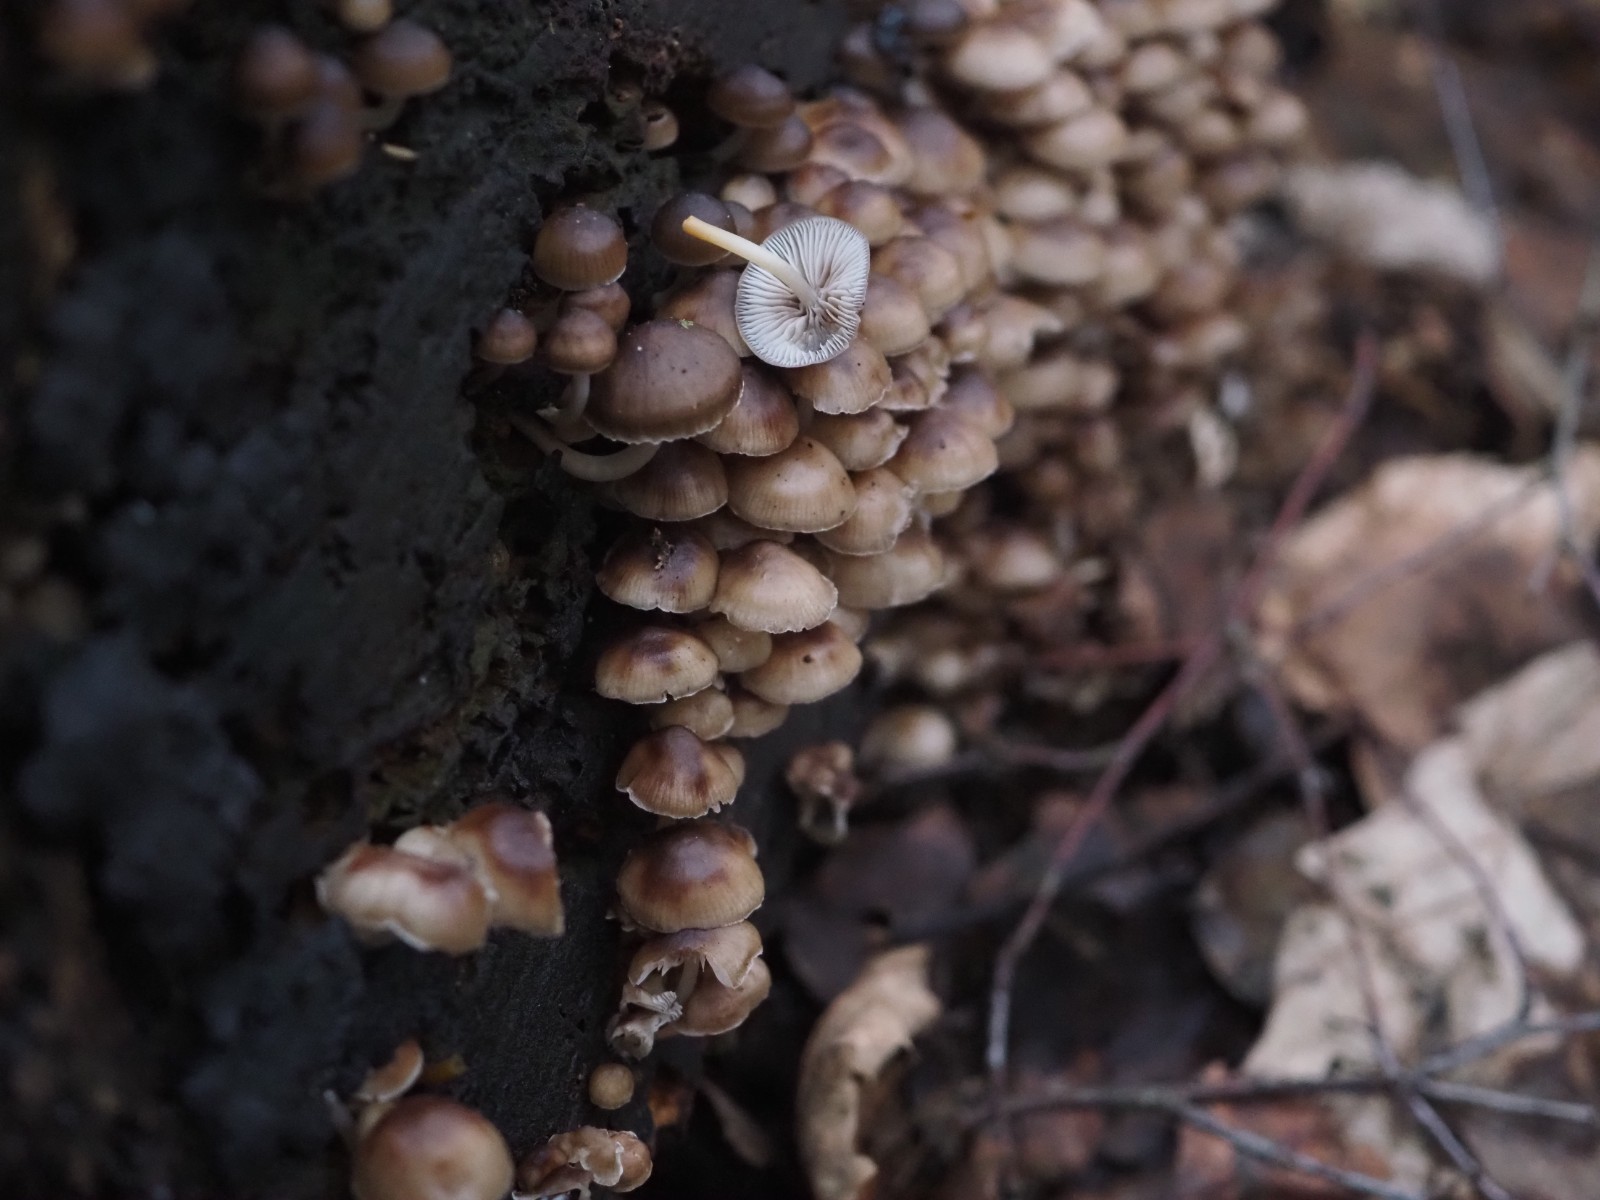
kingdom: Fungi
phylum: Basidiomycota
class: Agaricomycetes
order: Agaricales
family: Mycenaceae
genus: Mycena
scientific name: Mycena tintinnabulum
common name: vinter-huesvamp
